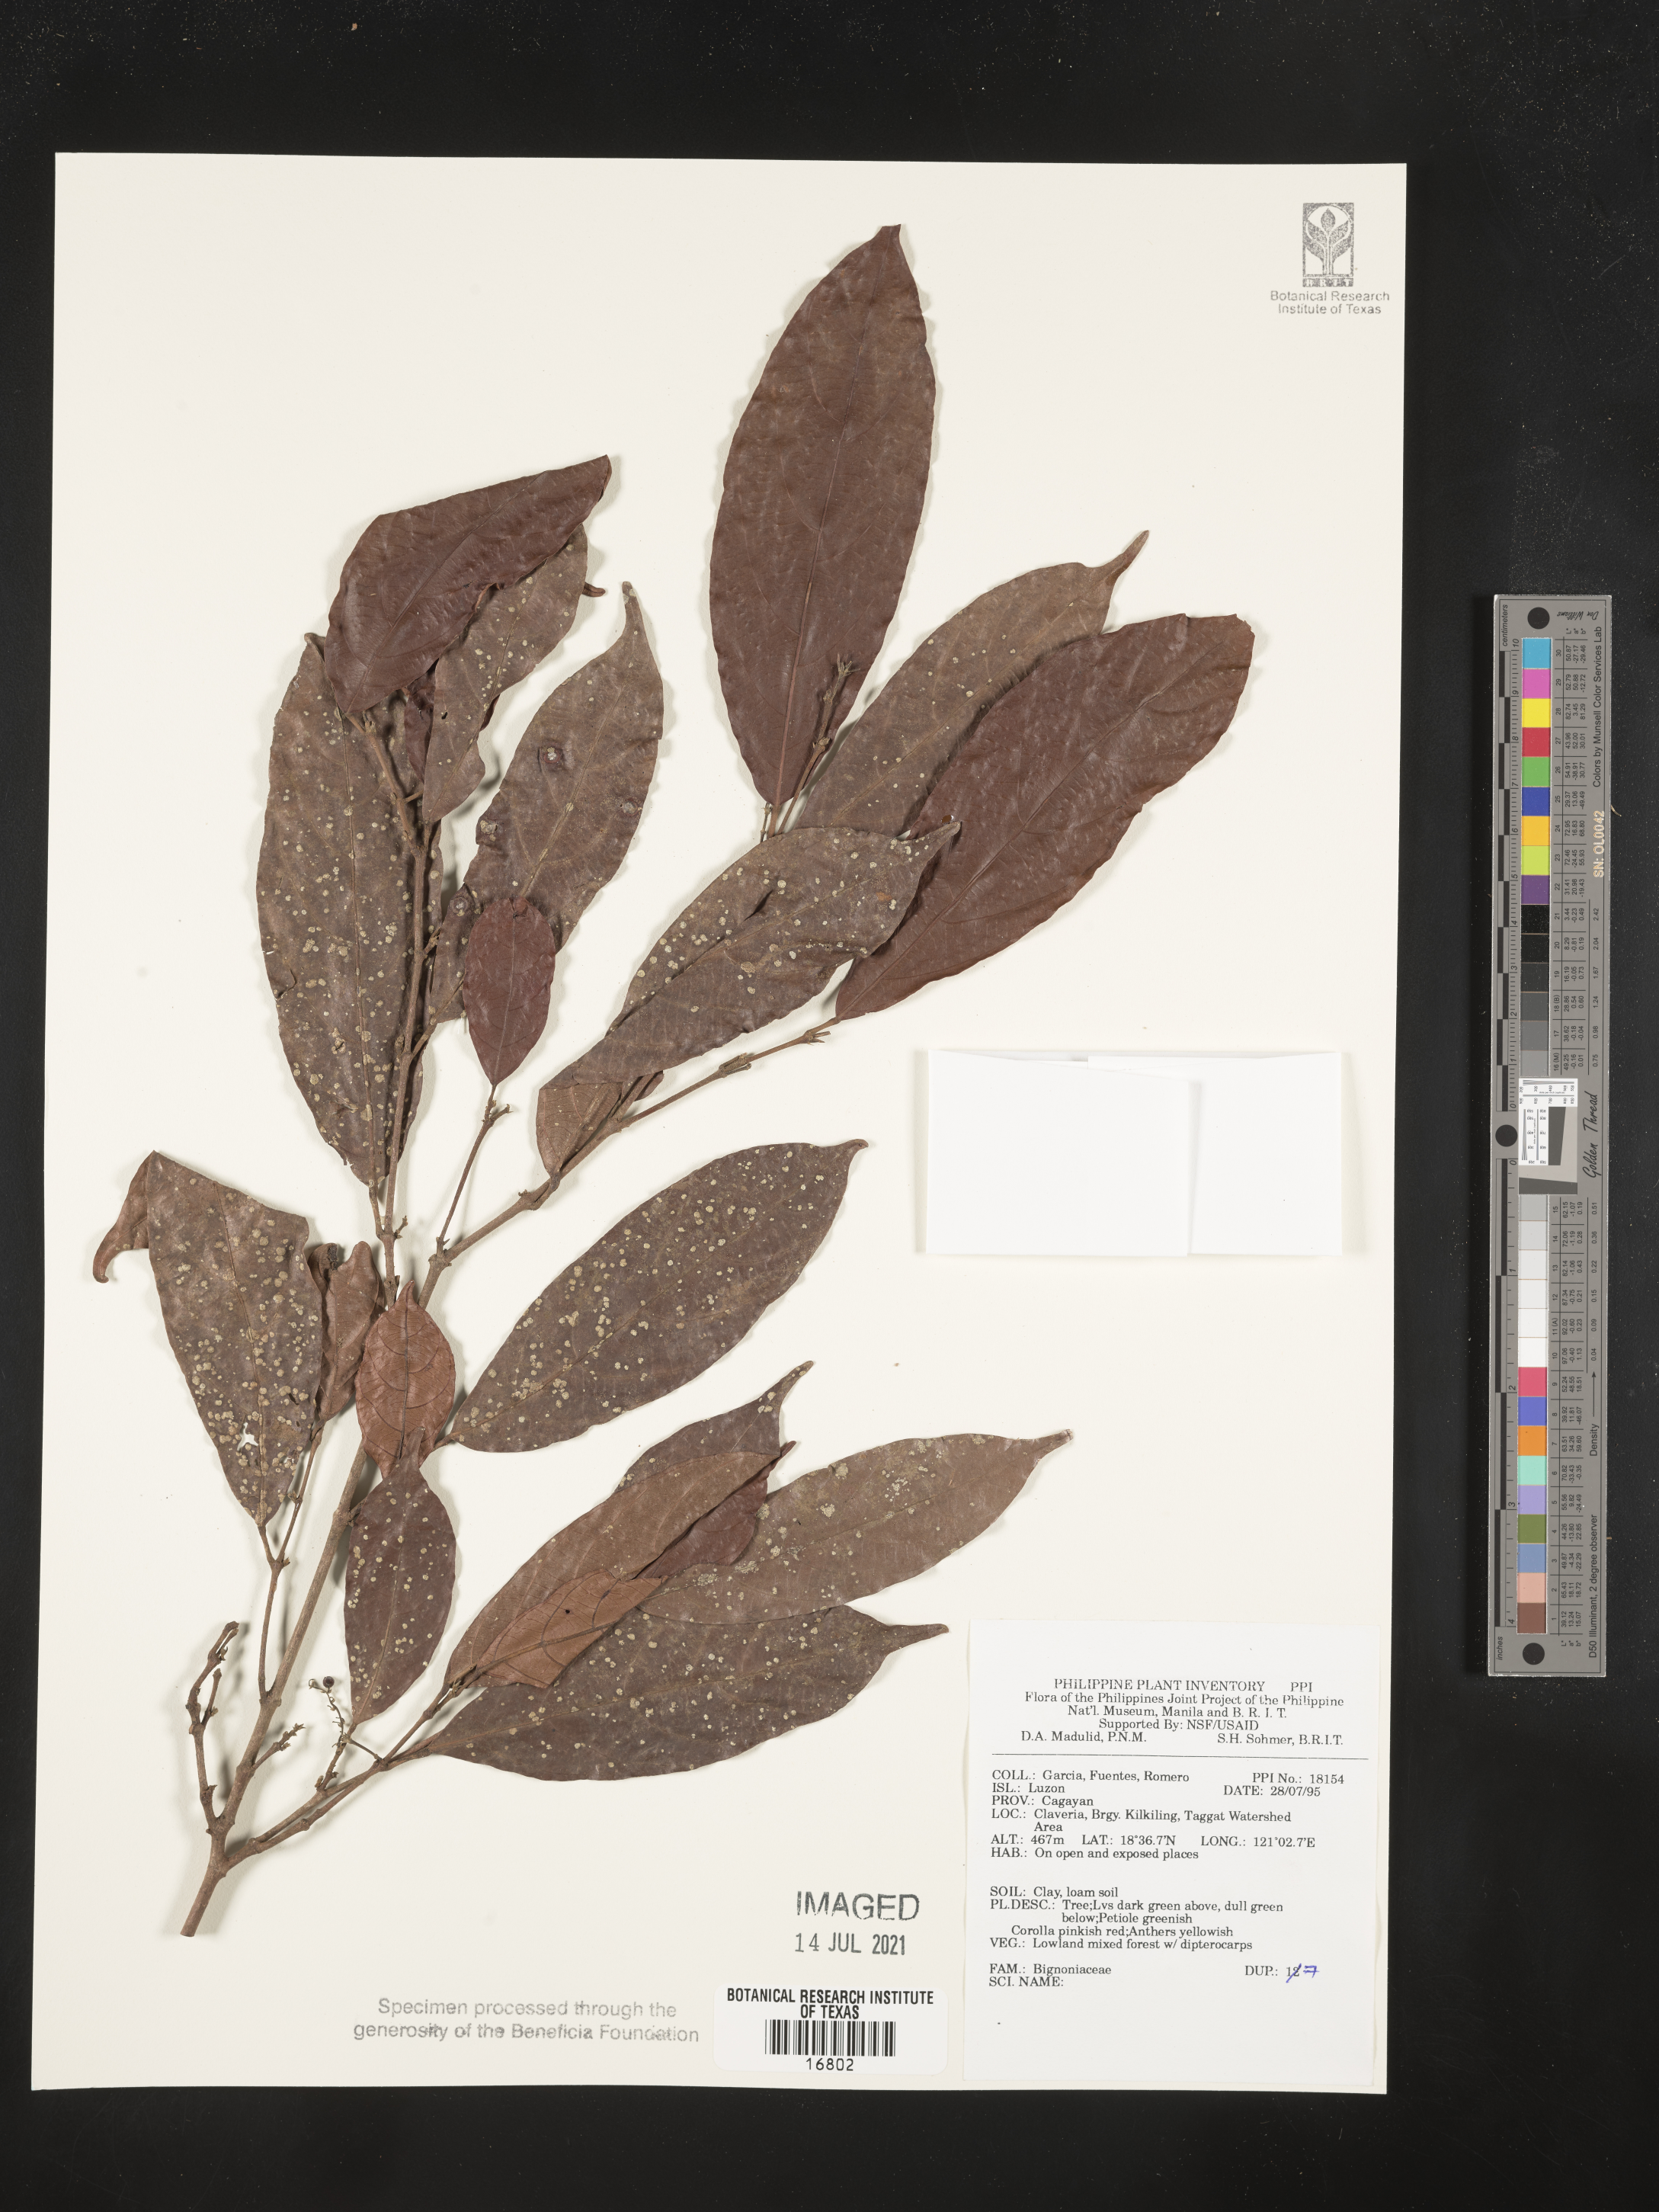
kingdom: Plantae
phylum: Tracheophyta
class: Magnoliopsida
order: Lamiales
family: Bignoniaceae
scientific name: Bignoniaceae
